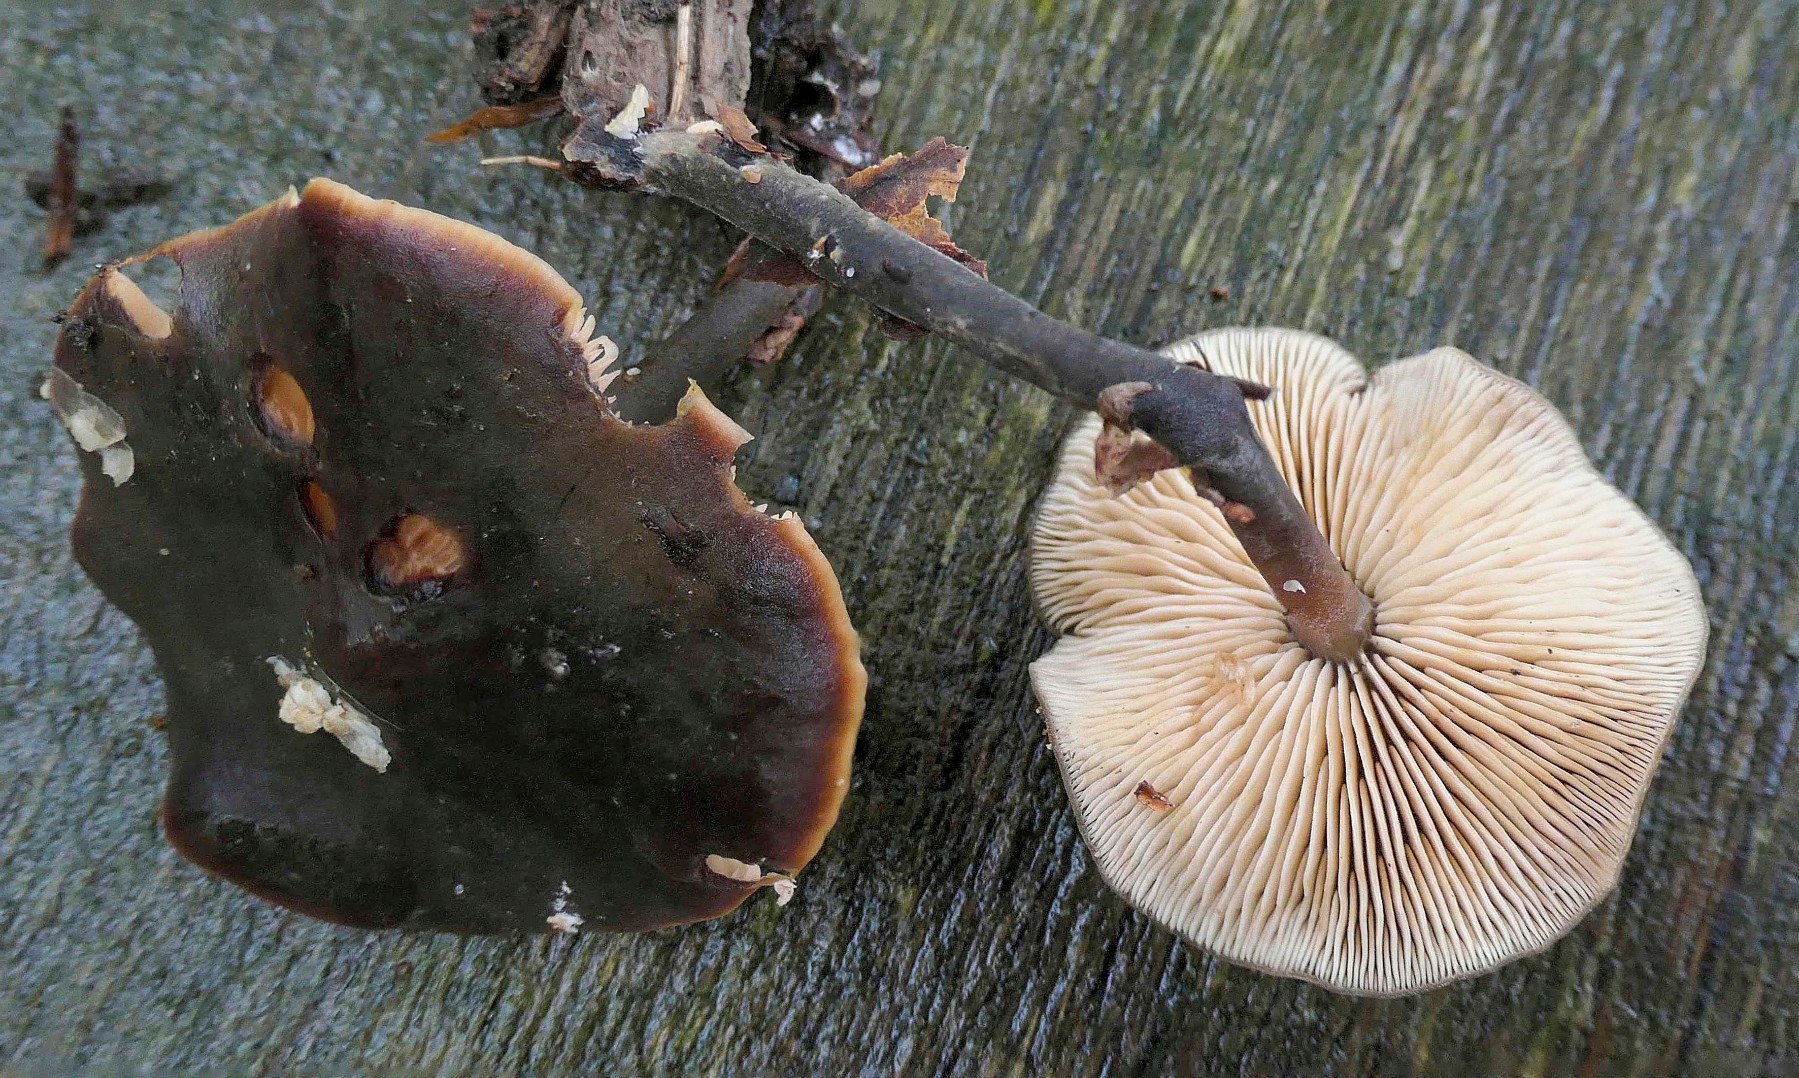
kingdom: Fungi
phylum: Basidiomycota
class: Agaricomycetes
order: Agaricales
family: Macrocystidiaceae
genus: Macrocystidia
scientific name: Macrocystidia cucumis
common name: agurkehat
